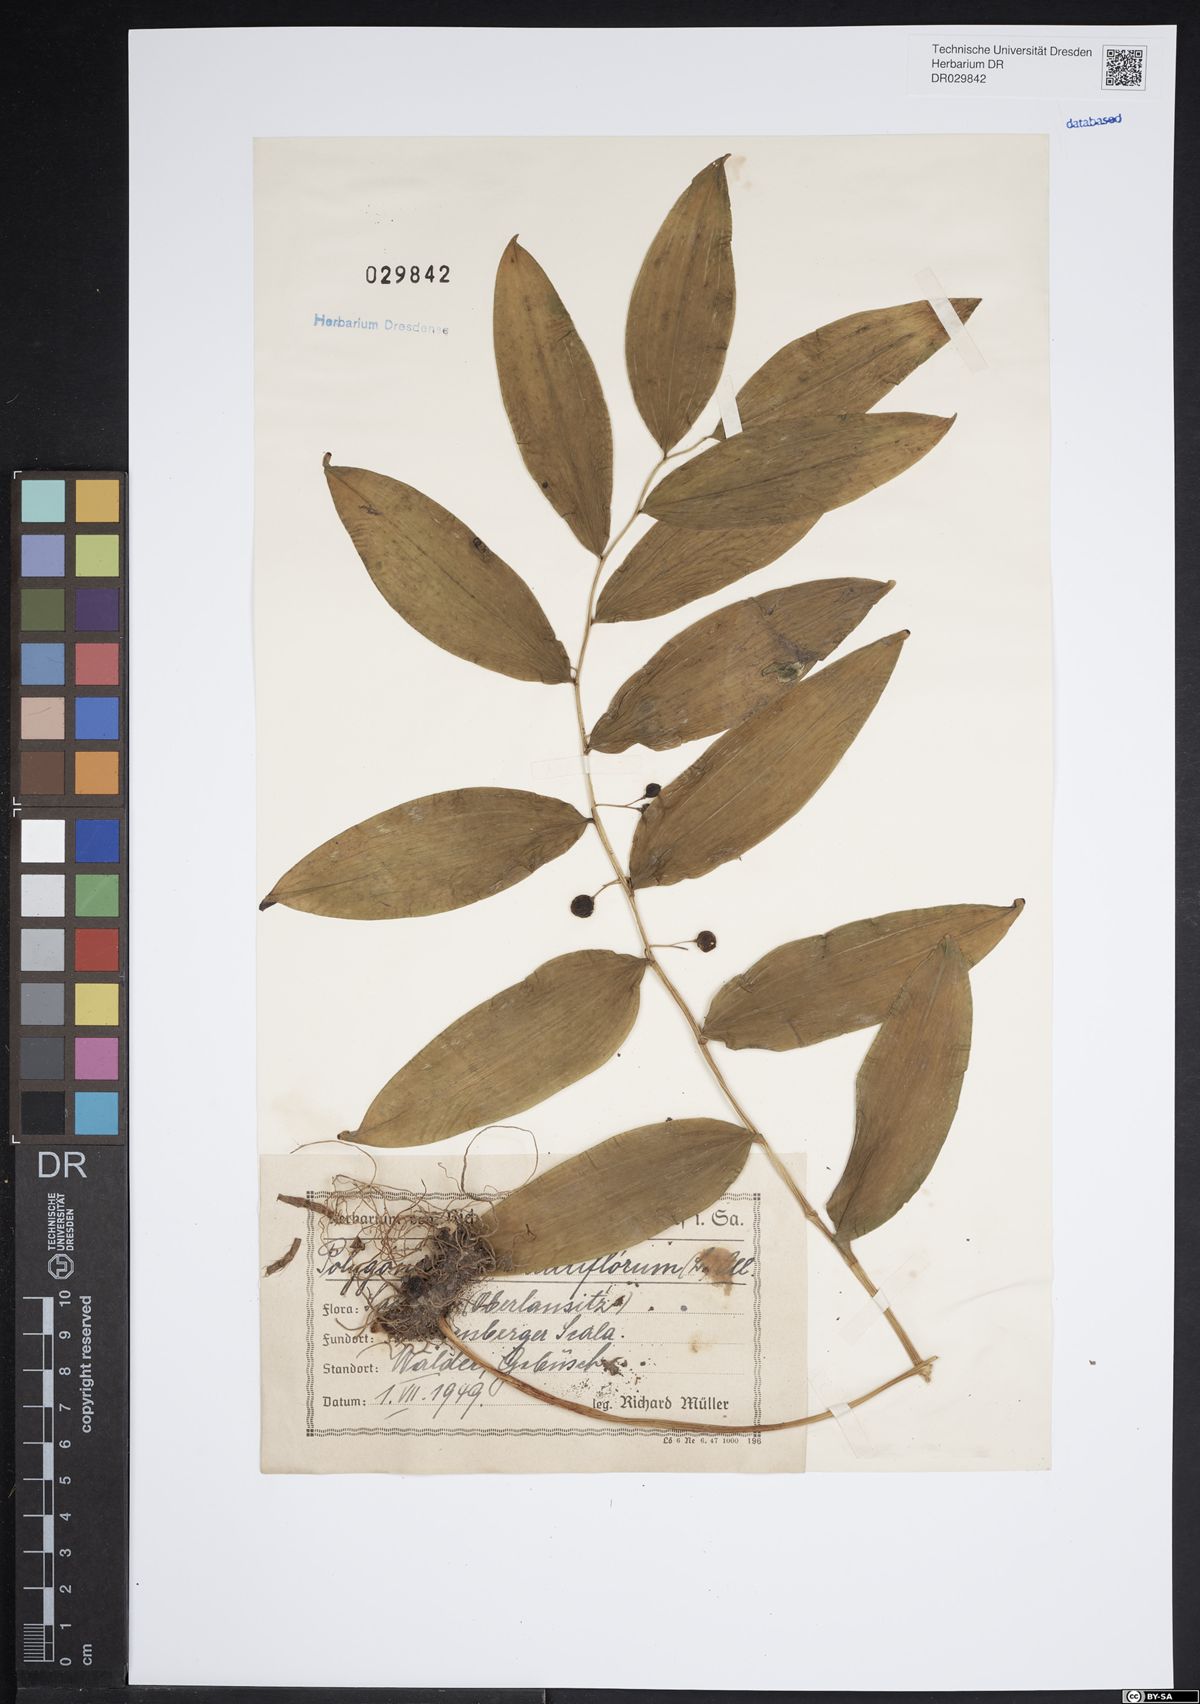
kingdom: Plantae
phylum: Tracheophyta
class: Liliopsida
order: Asparagales
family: Asparagaceae
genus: Polygonatum
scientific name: Polygonatum odoratum
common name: Angular solomon's-seal
